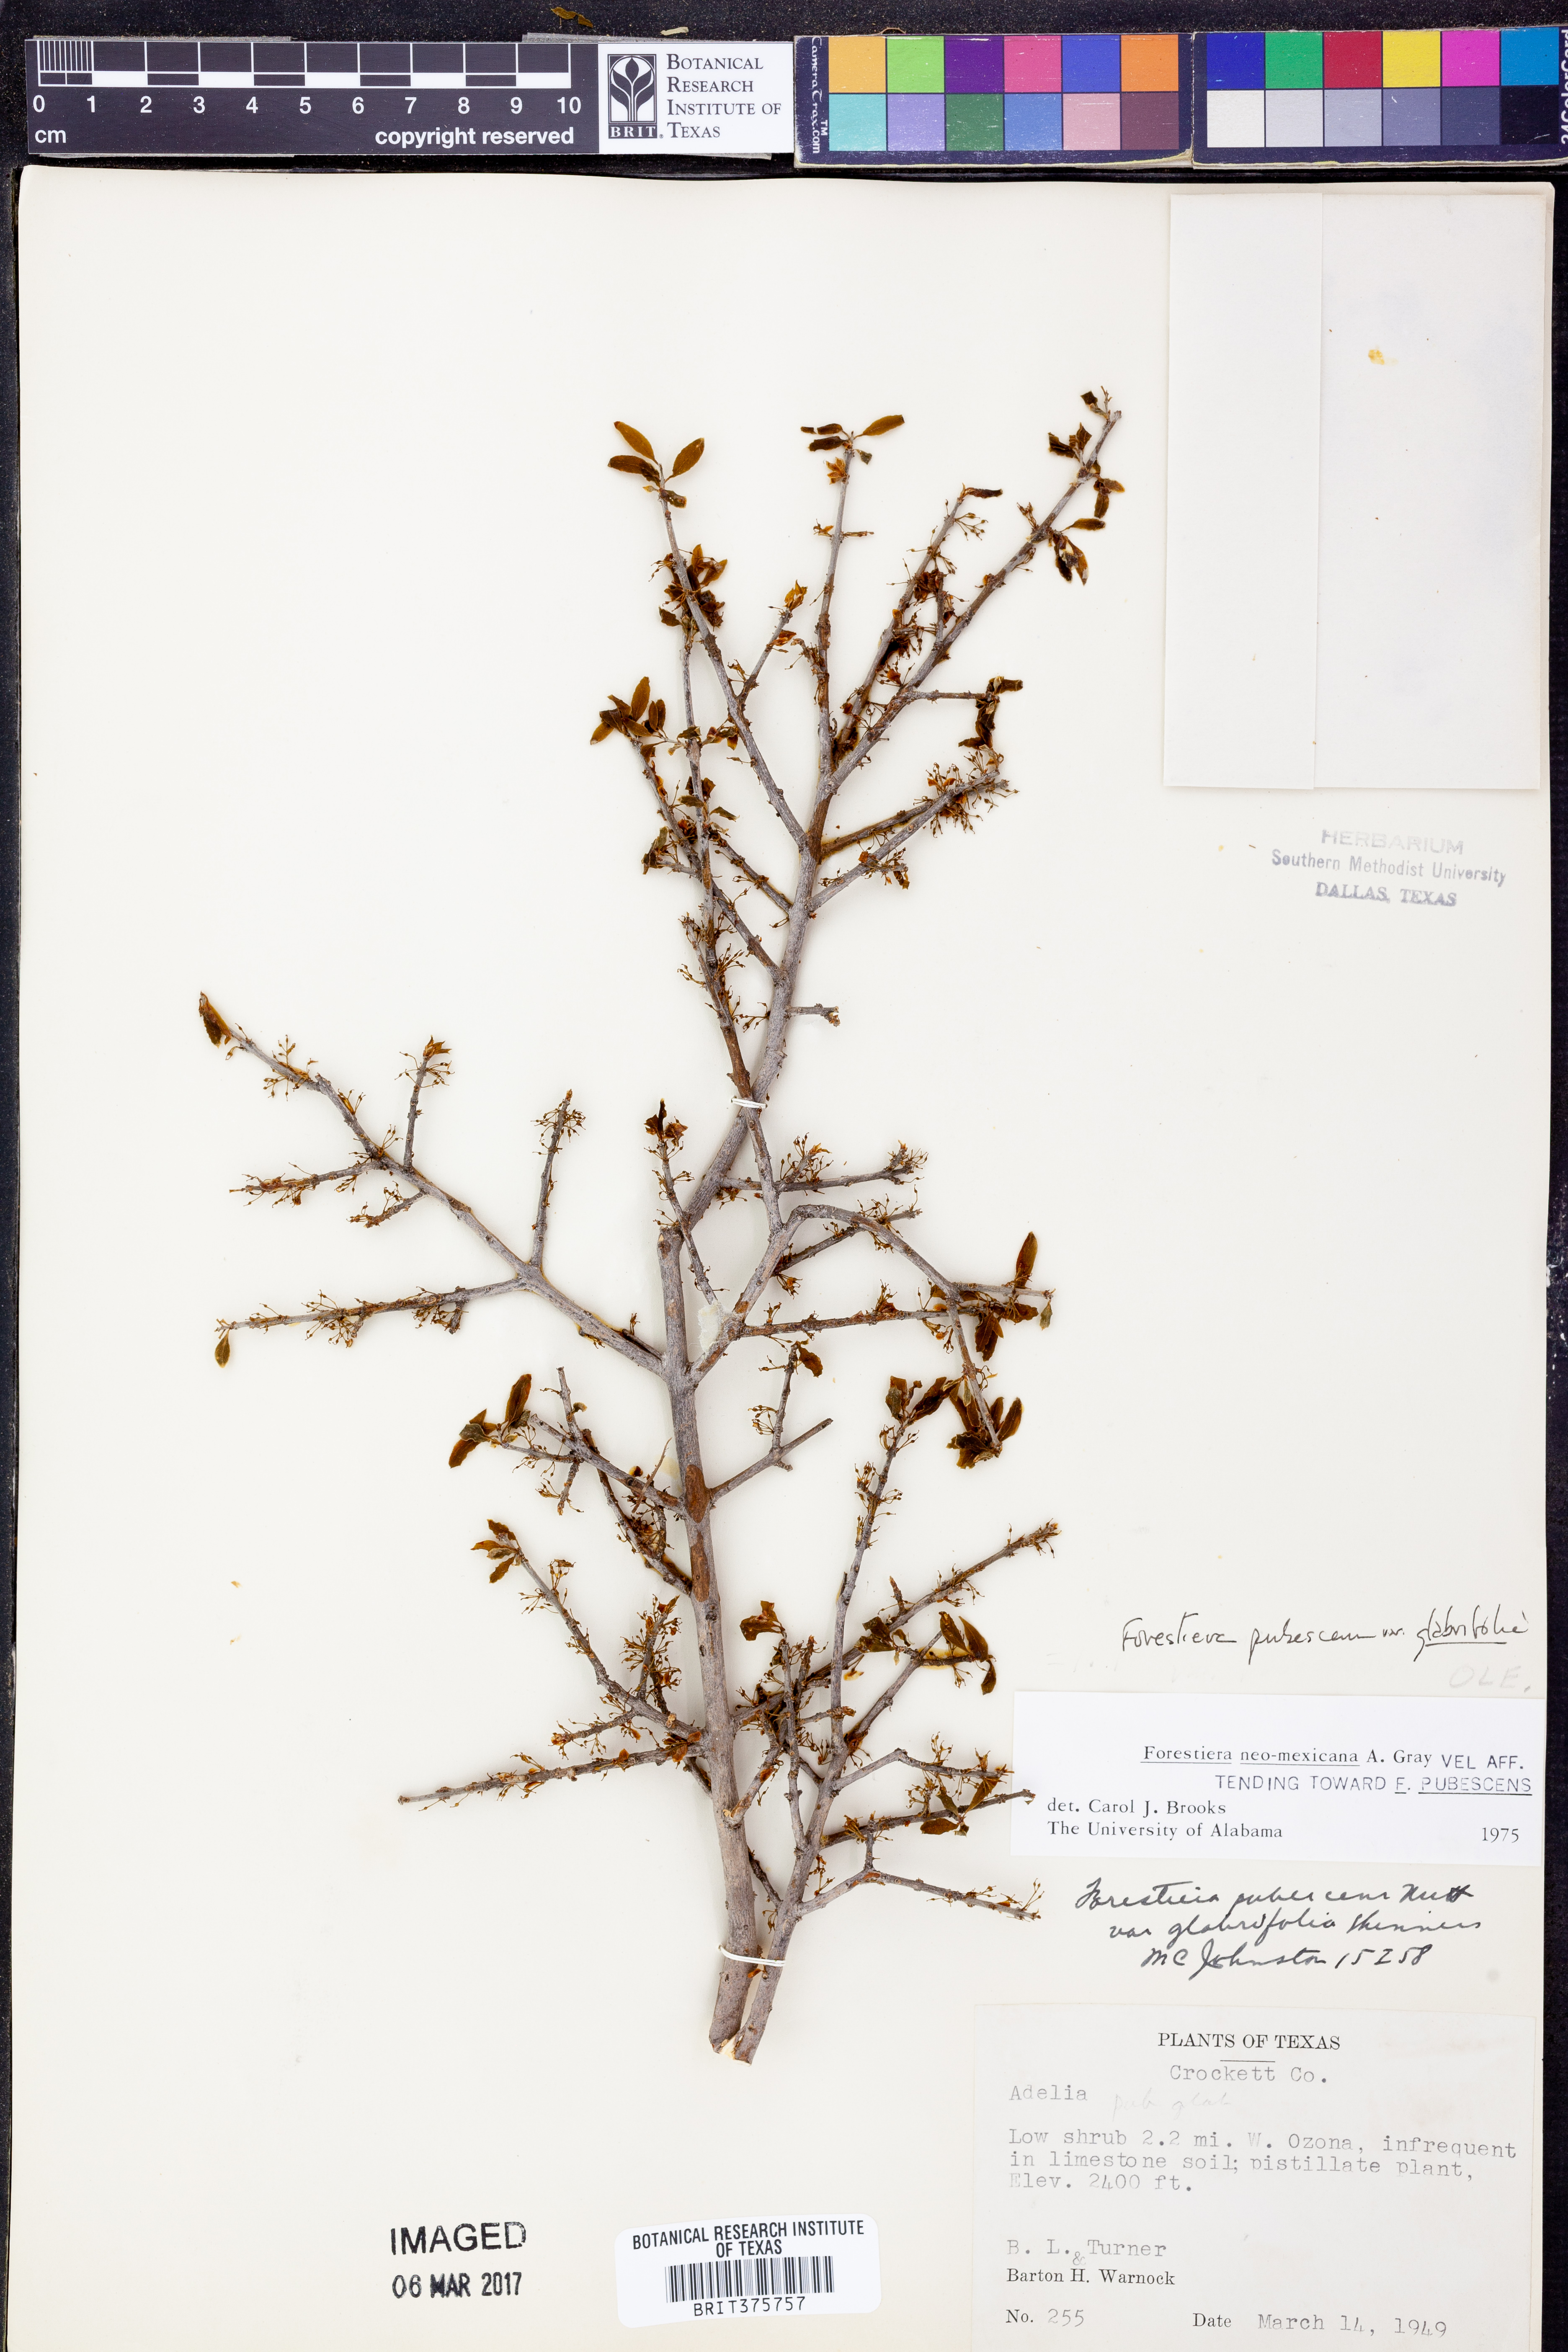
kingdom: Plantae
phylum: Tracheophyta
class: Magnoliopsida
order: Lamiales
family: Oleaceae
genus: Forestiera
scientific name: Forestiera pubescens
